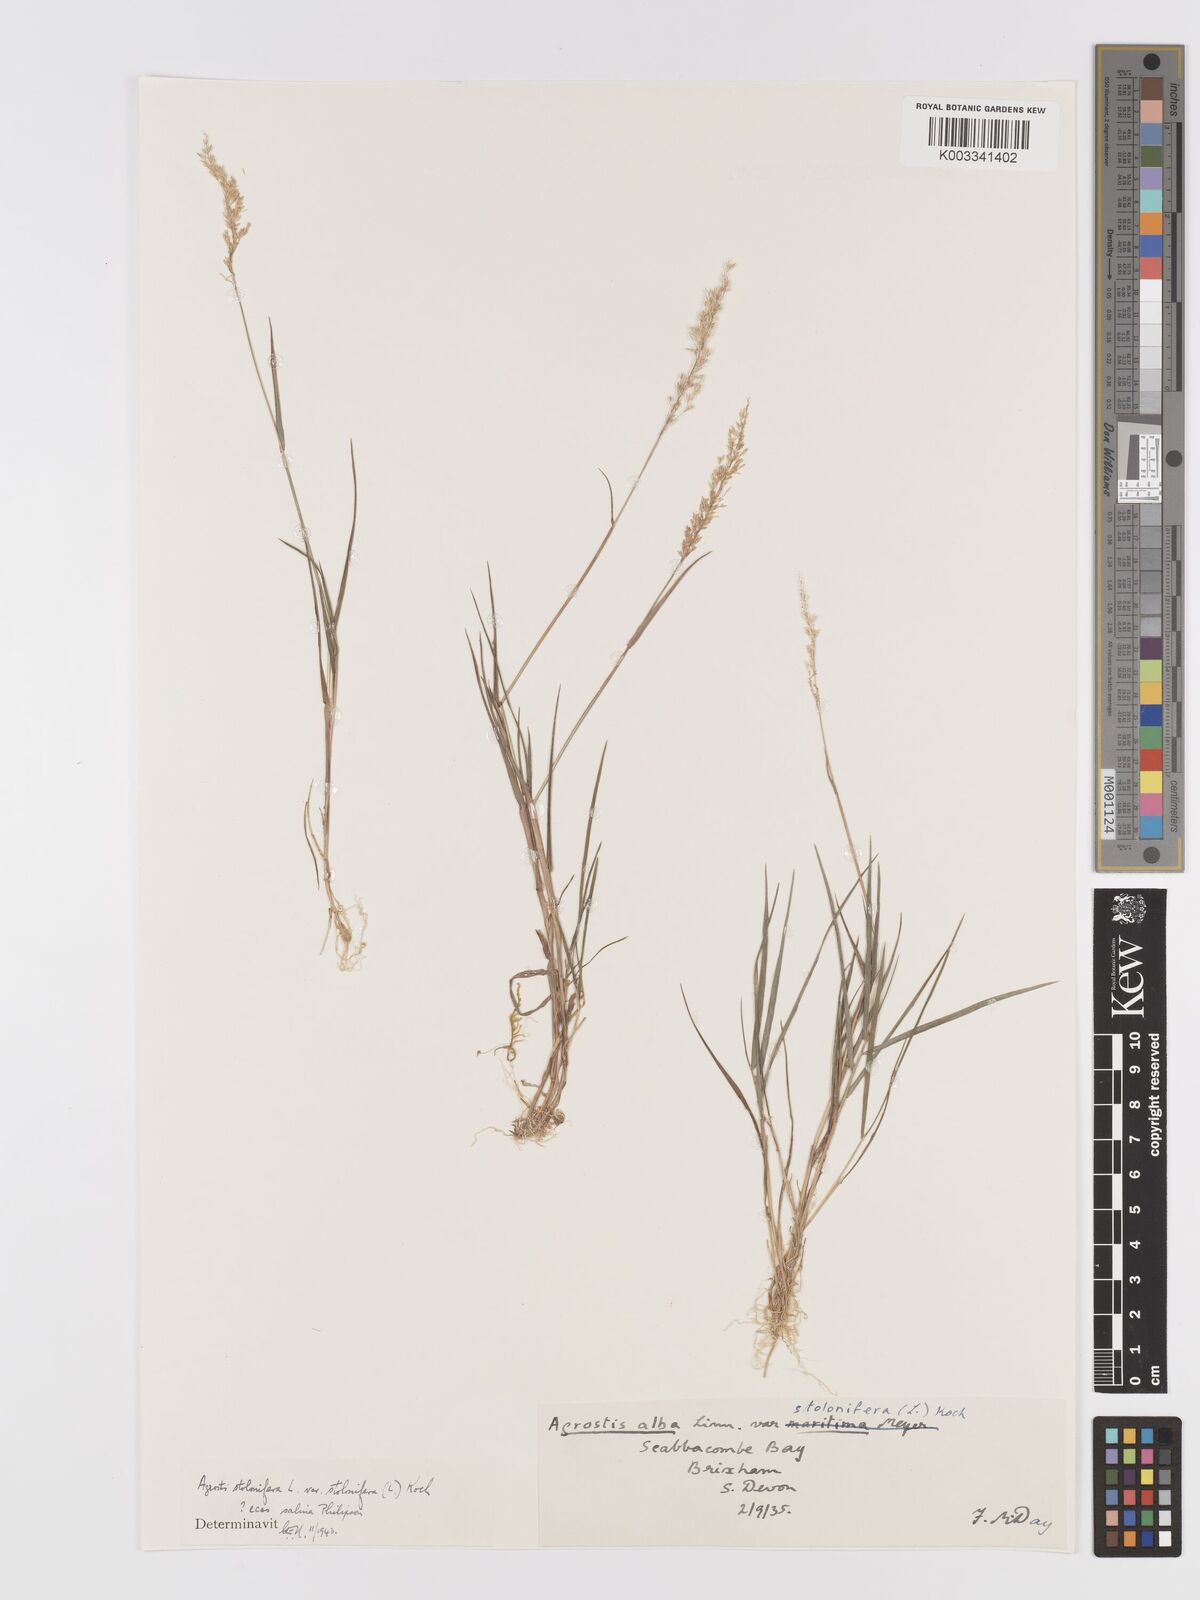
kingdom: Plantae
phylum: Tracheophyta
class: Liliopsida
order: Poales
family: Poaceae
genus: Agrostis
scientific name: Agrostis stolonifera
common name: Creeping bentgrass
